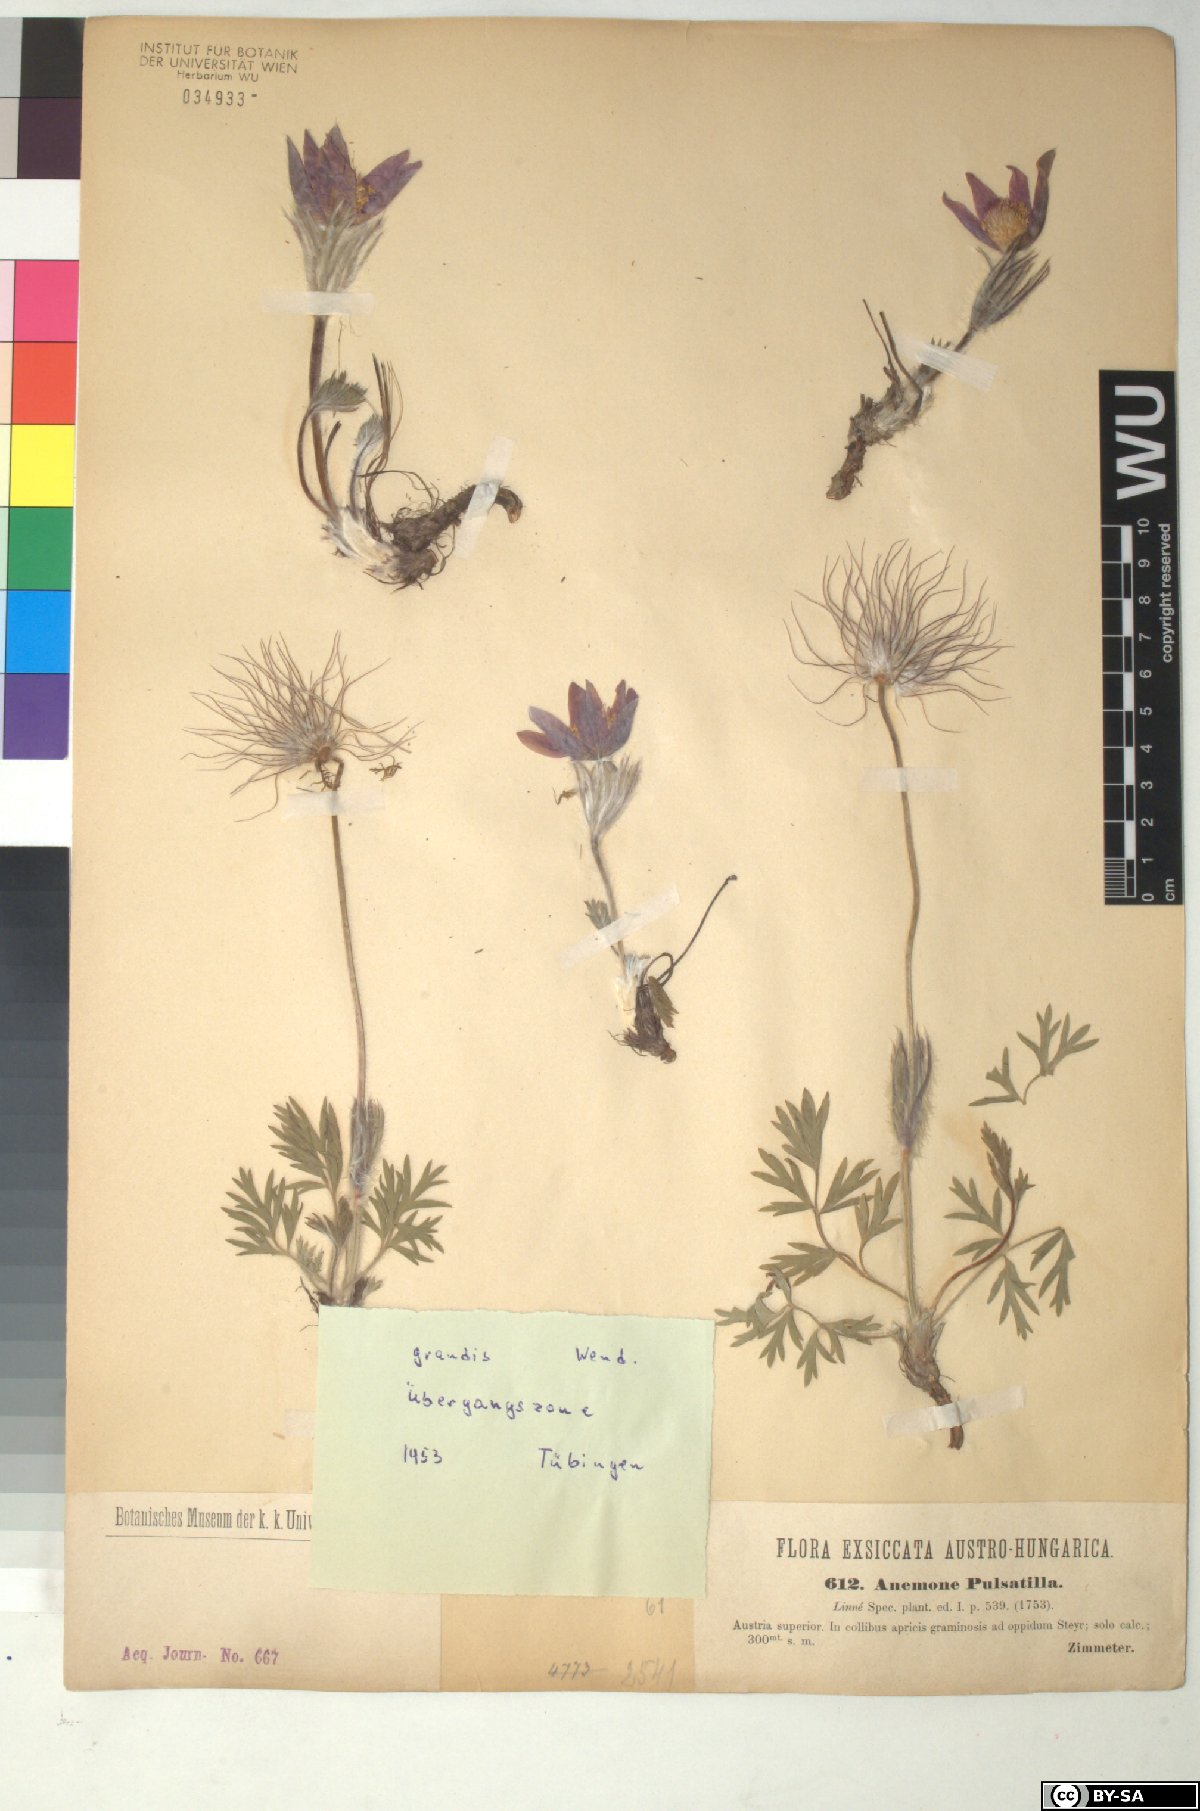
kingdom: Plantae
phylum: Tracheophyta
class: Magnoliopsida
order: Ranunculales
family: Ranunculaceae
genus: Pulsatilla
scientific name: Pulsatilla grandis
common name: Greater pasque flower
